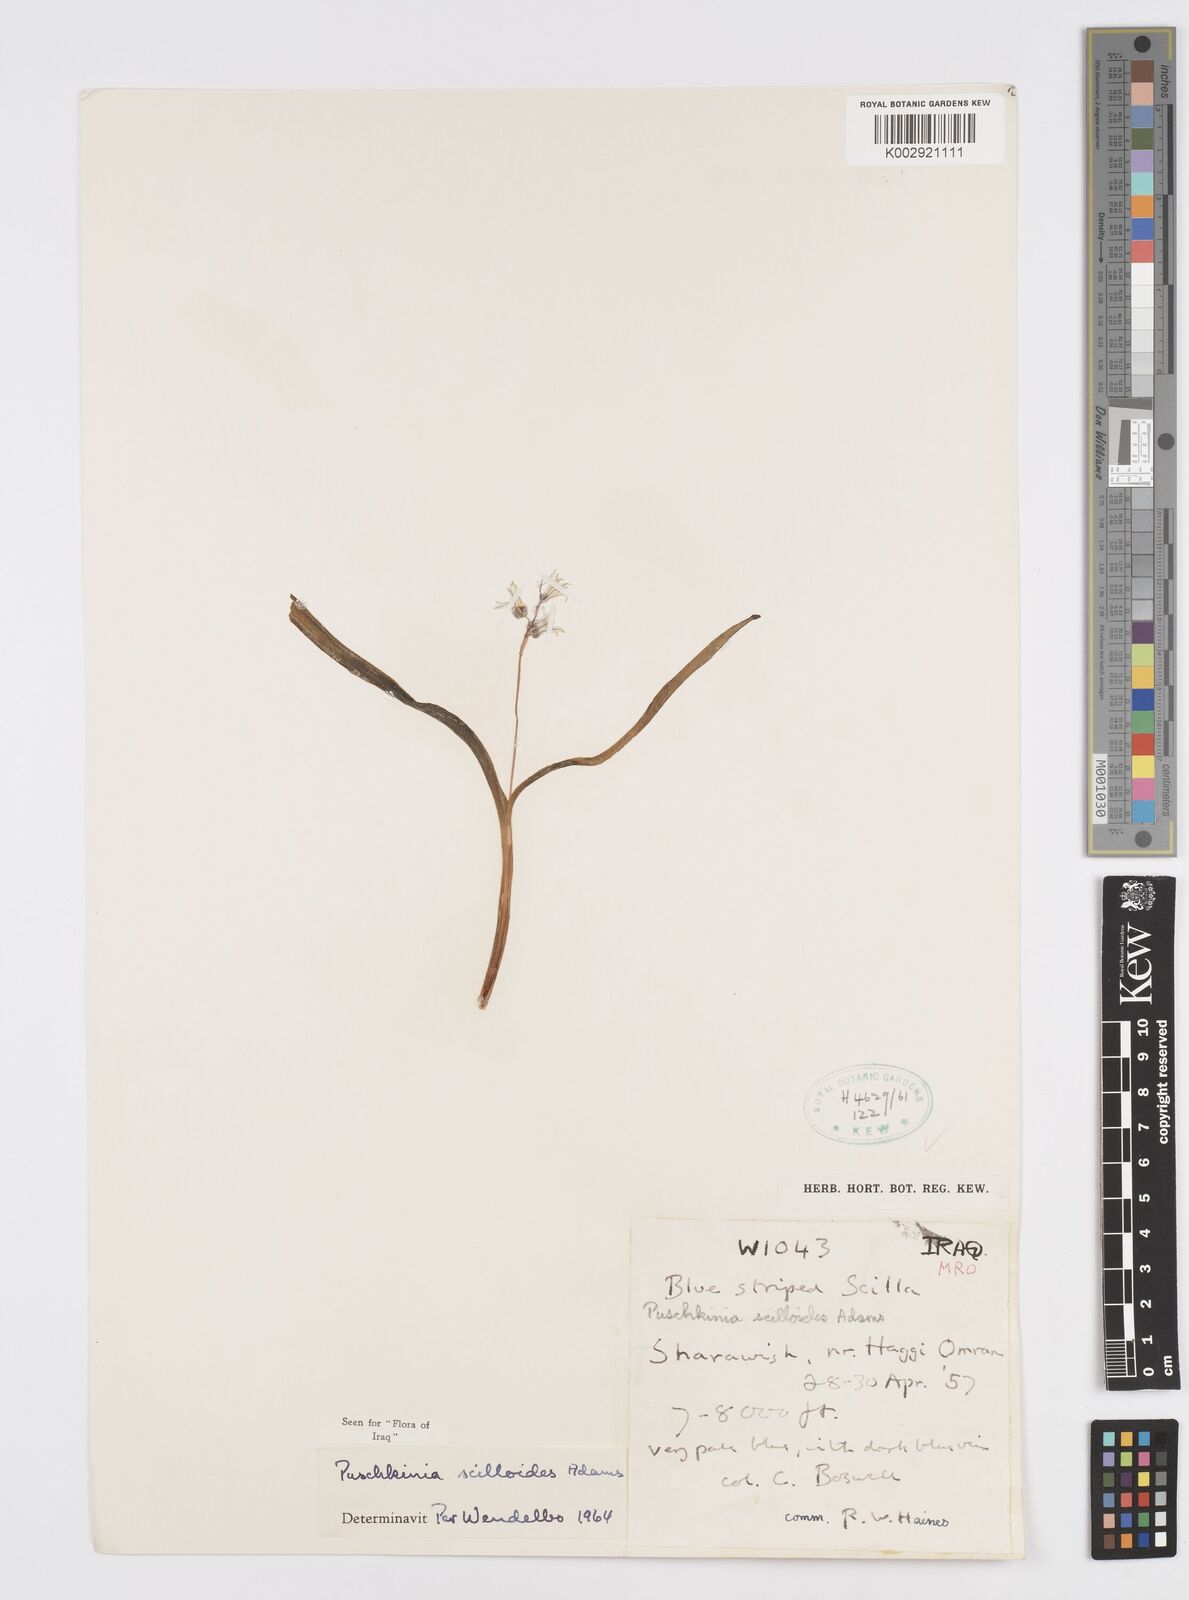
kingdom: Plantae
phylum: Tracheophyta
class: Liliopsida
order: Asparagales
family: Asparagaceae
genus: Puschkinia
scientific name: Puschkinia scilloides
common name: Striped squill
